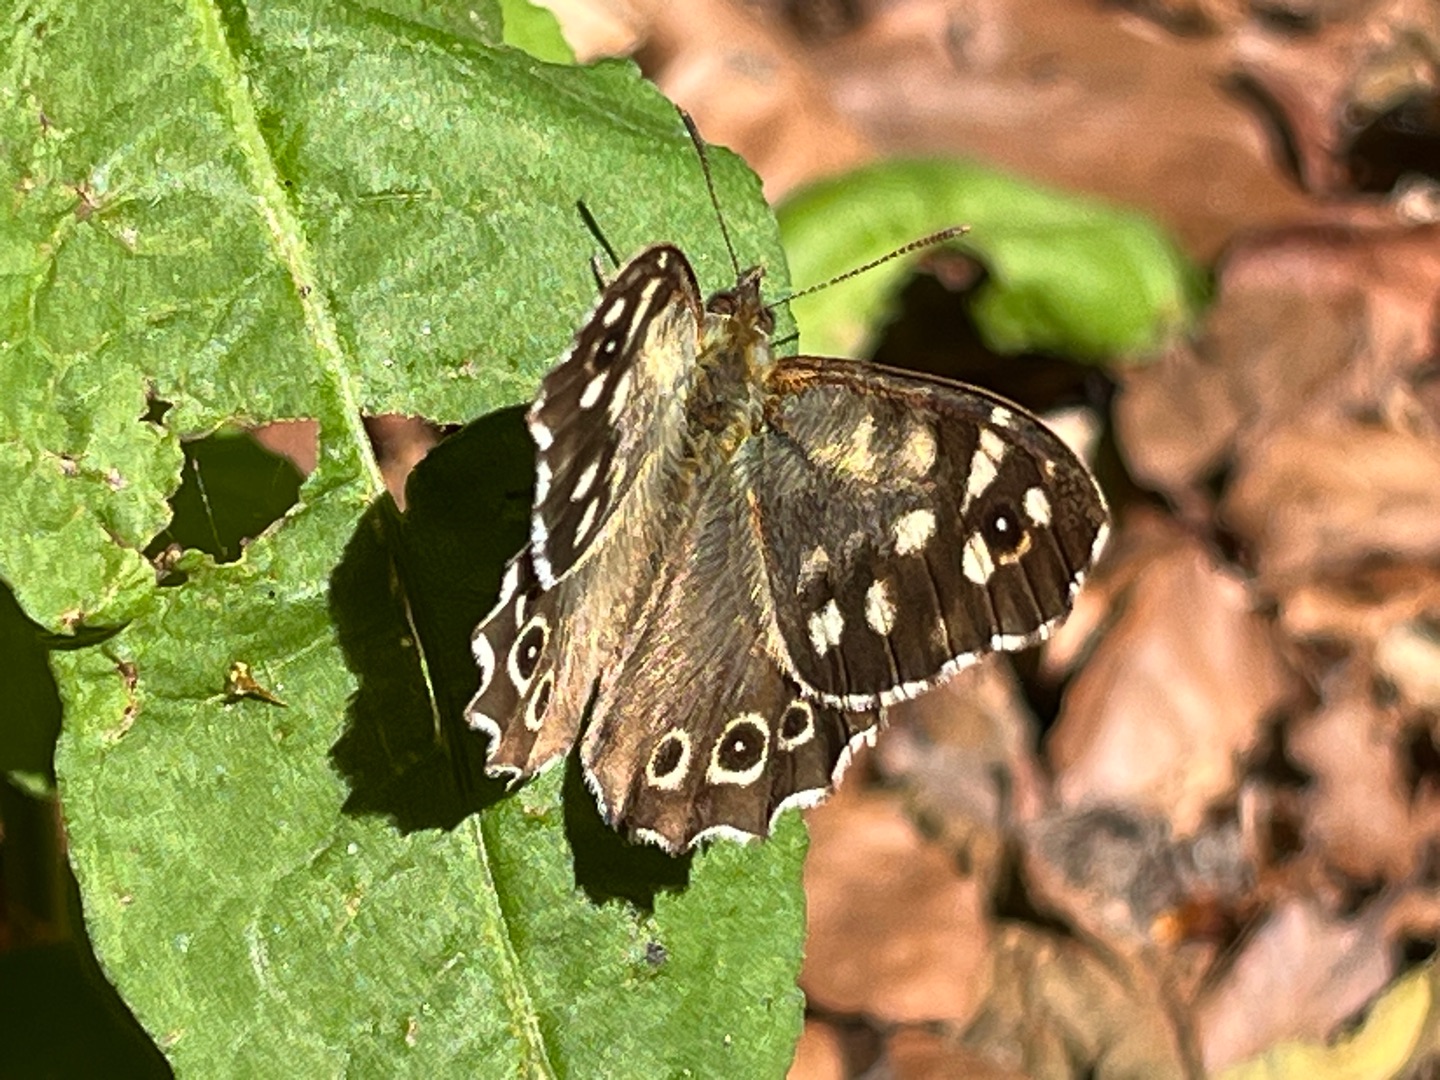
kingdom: Animalia
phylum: Arthropoda
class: Insecta
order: Lepidoptera
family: Nymphalidae
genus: Pararge
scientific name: Pararge aegeria
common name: Skovrandøje
